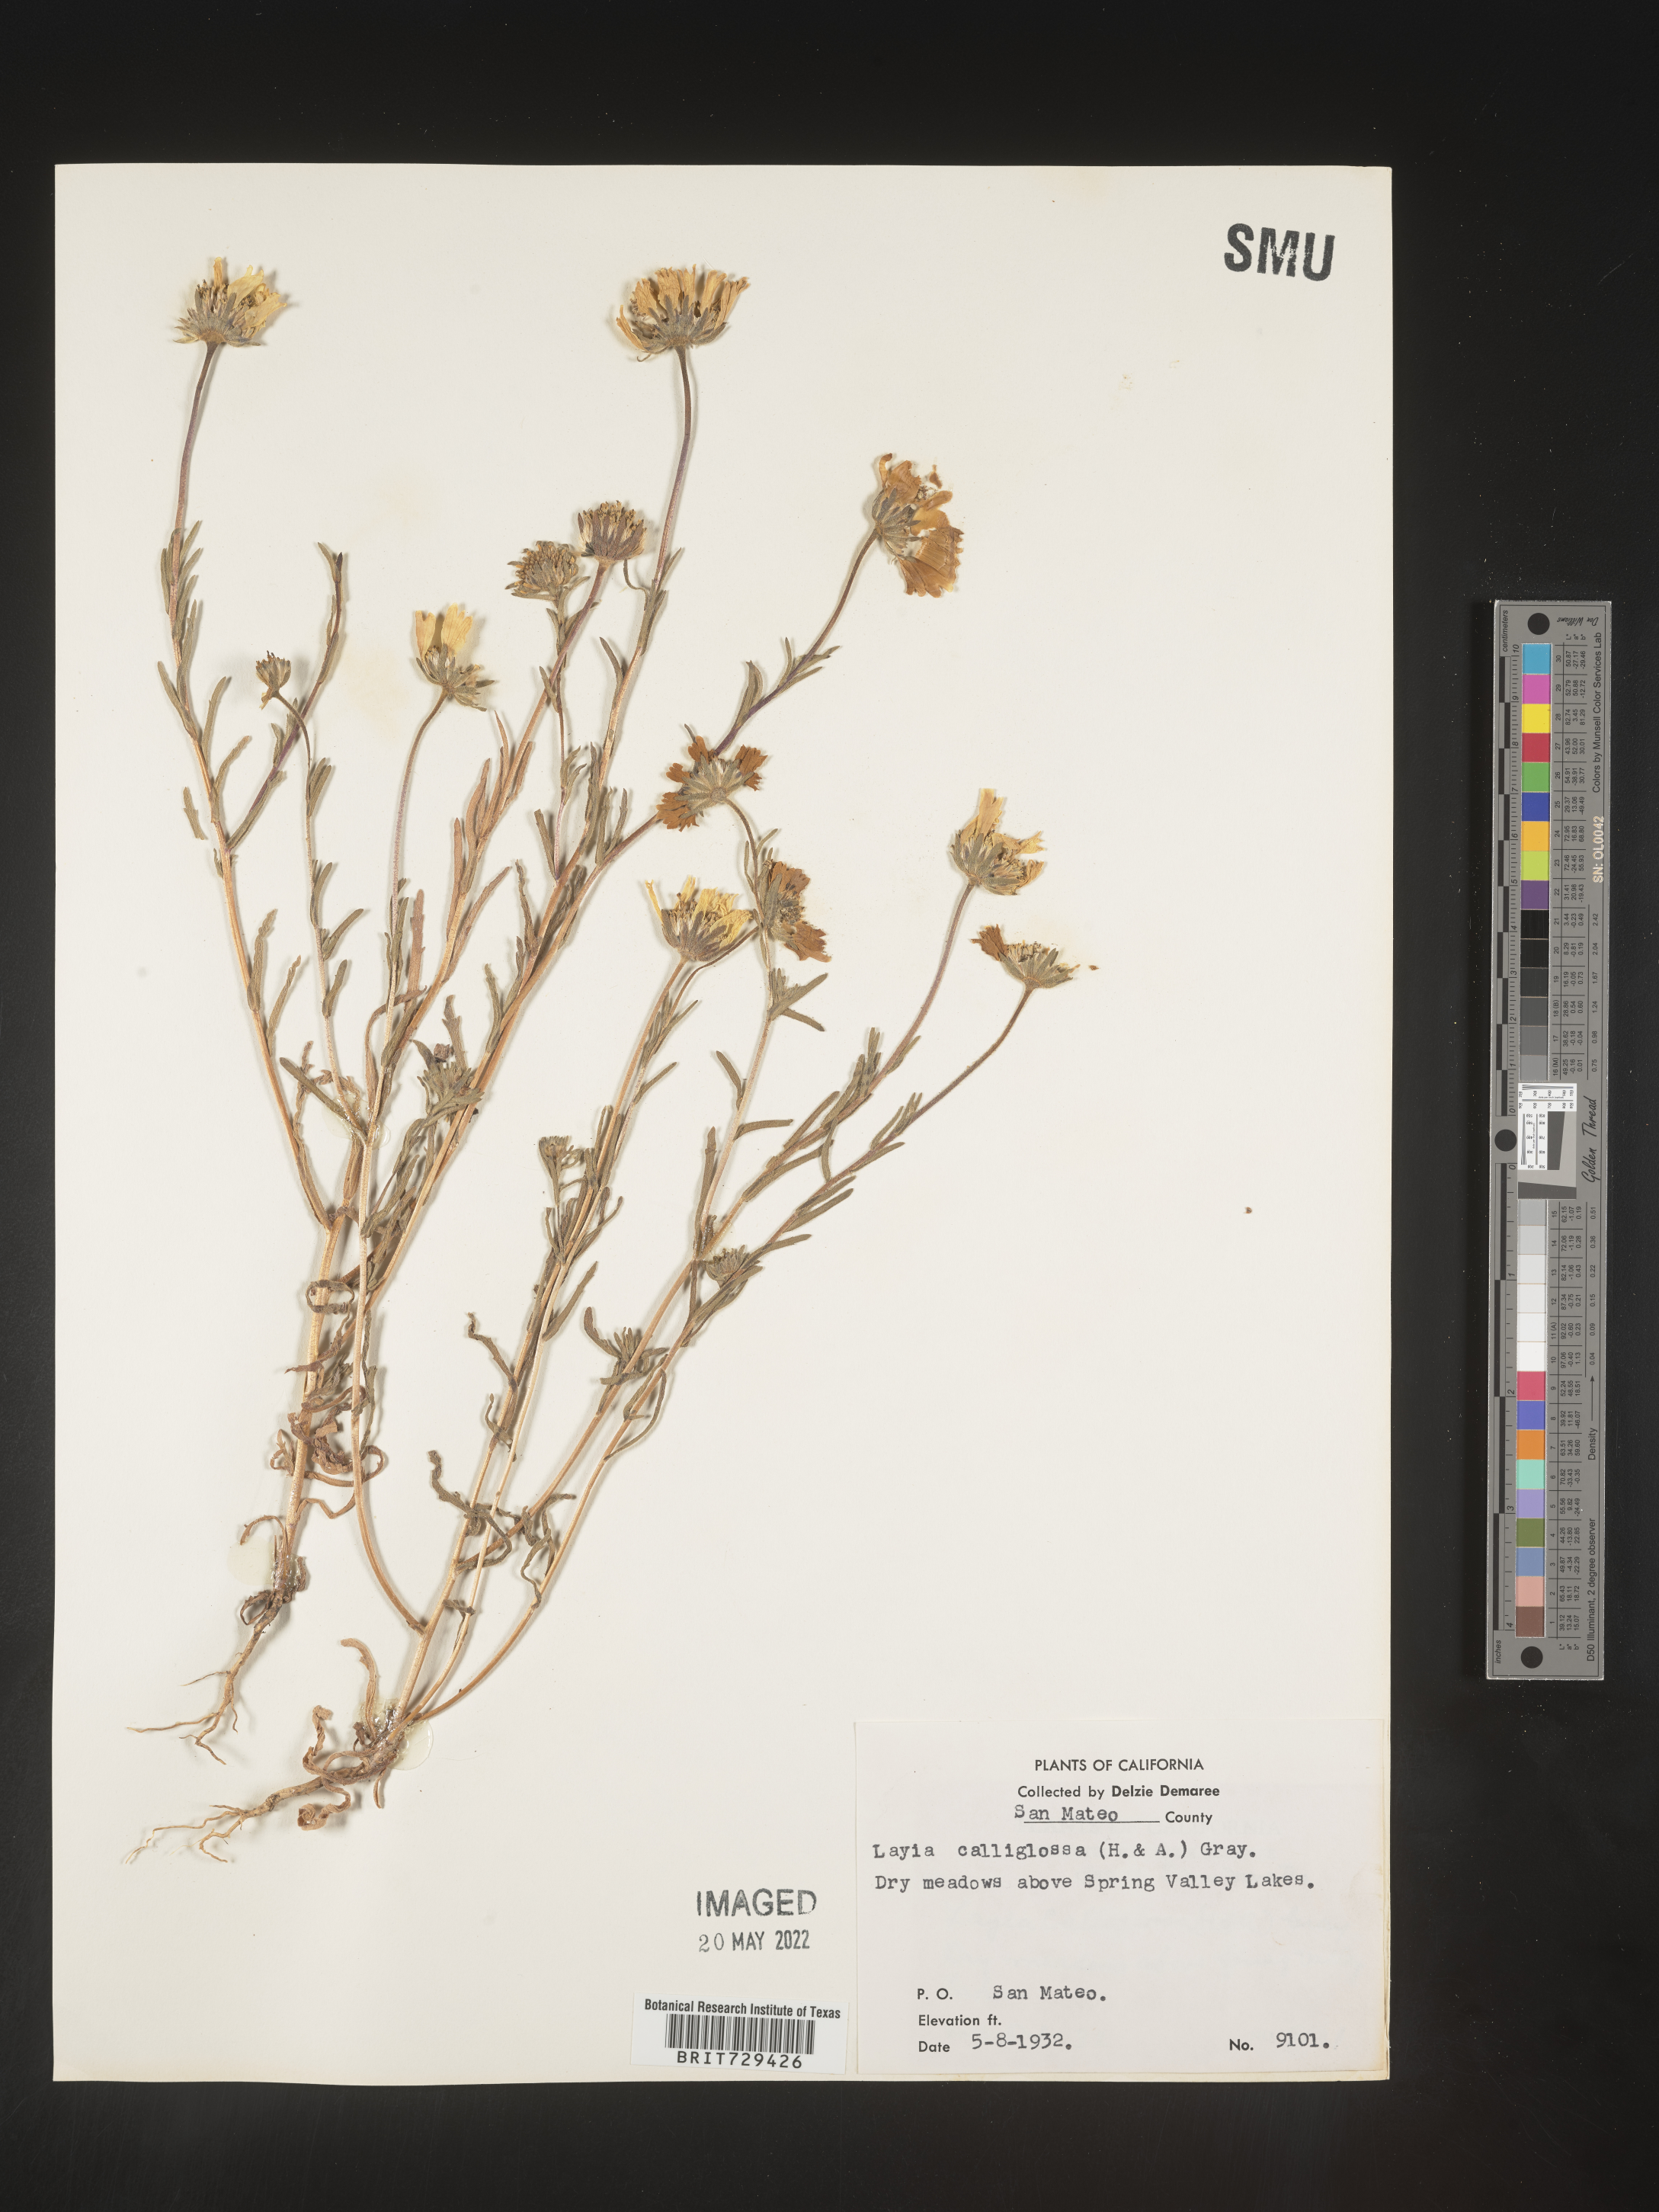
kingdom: Plantae
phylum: Tracheophyta
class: Magnoliopsida
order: Asterales
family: Asteraceae
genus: Layia
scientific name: Layia
